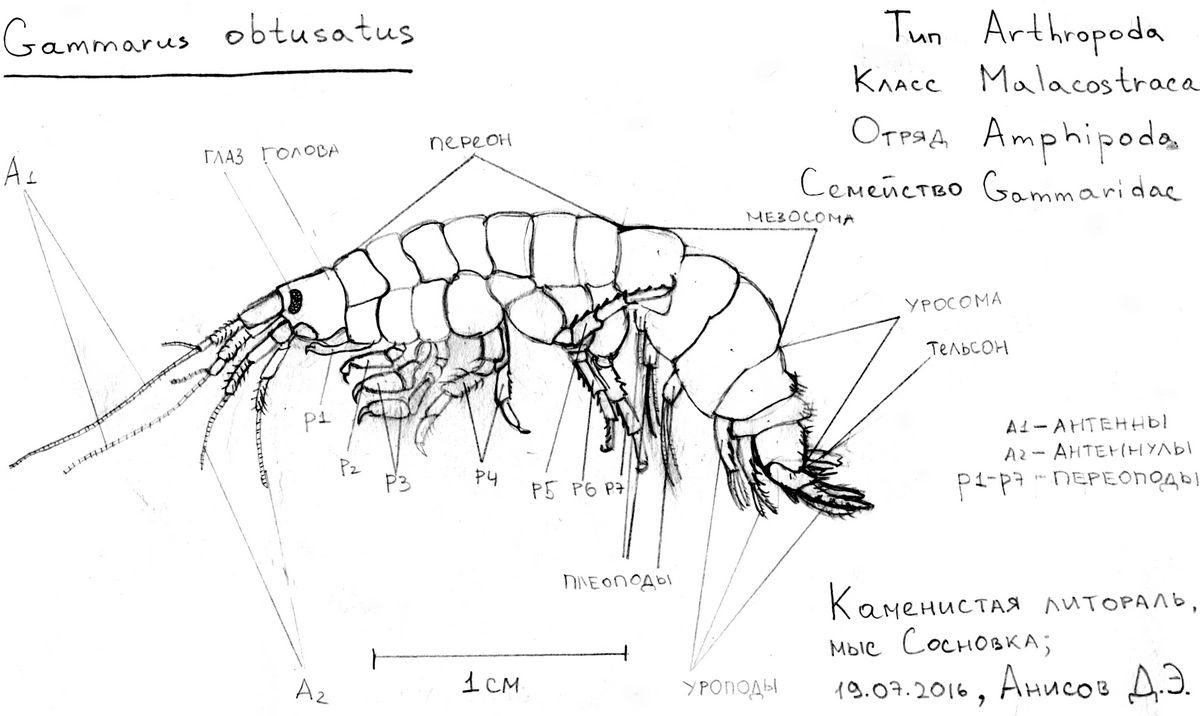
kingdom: Animalia
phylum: Arthropoda
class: Malacostraca
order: Amphipoda
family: Gammaridae
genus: Marinogammarus
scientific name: Marinogammarus obtusatus
